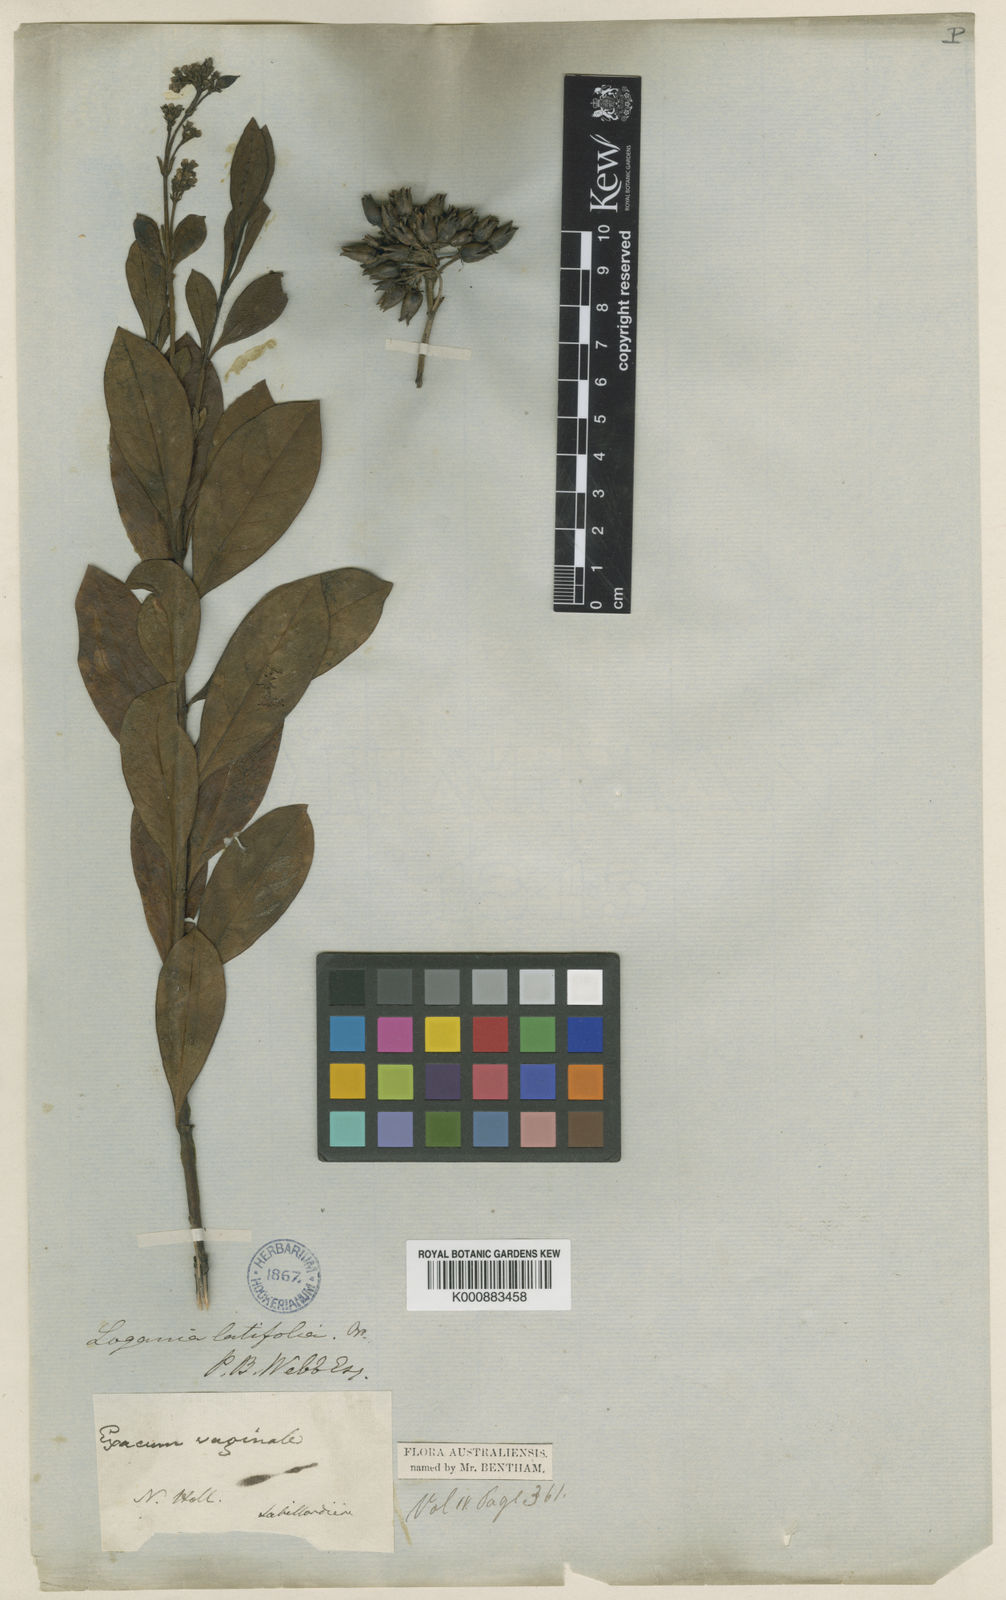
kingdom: Plantae
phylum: Tracheophyta
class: Magnoliopsida
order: Gentianales
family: Loganiaceae
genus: Logania
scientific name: Logania vaginalis
